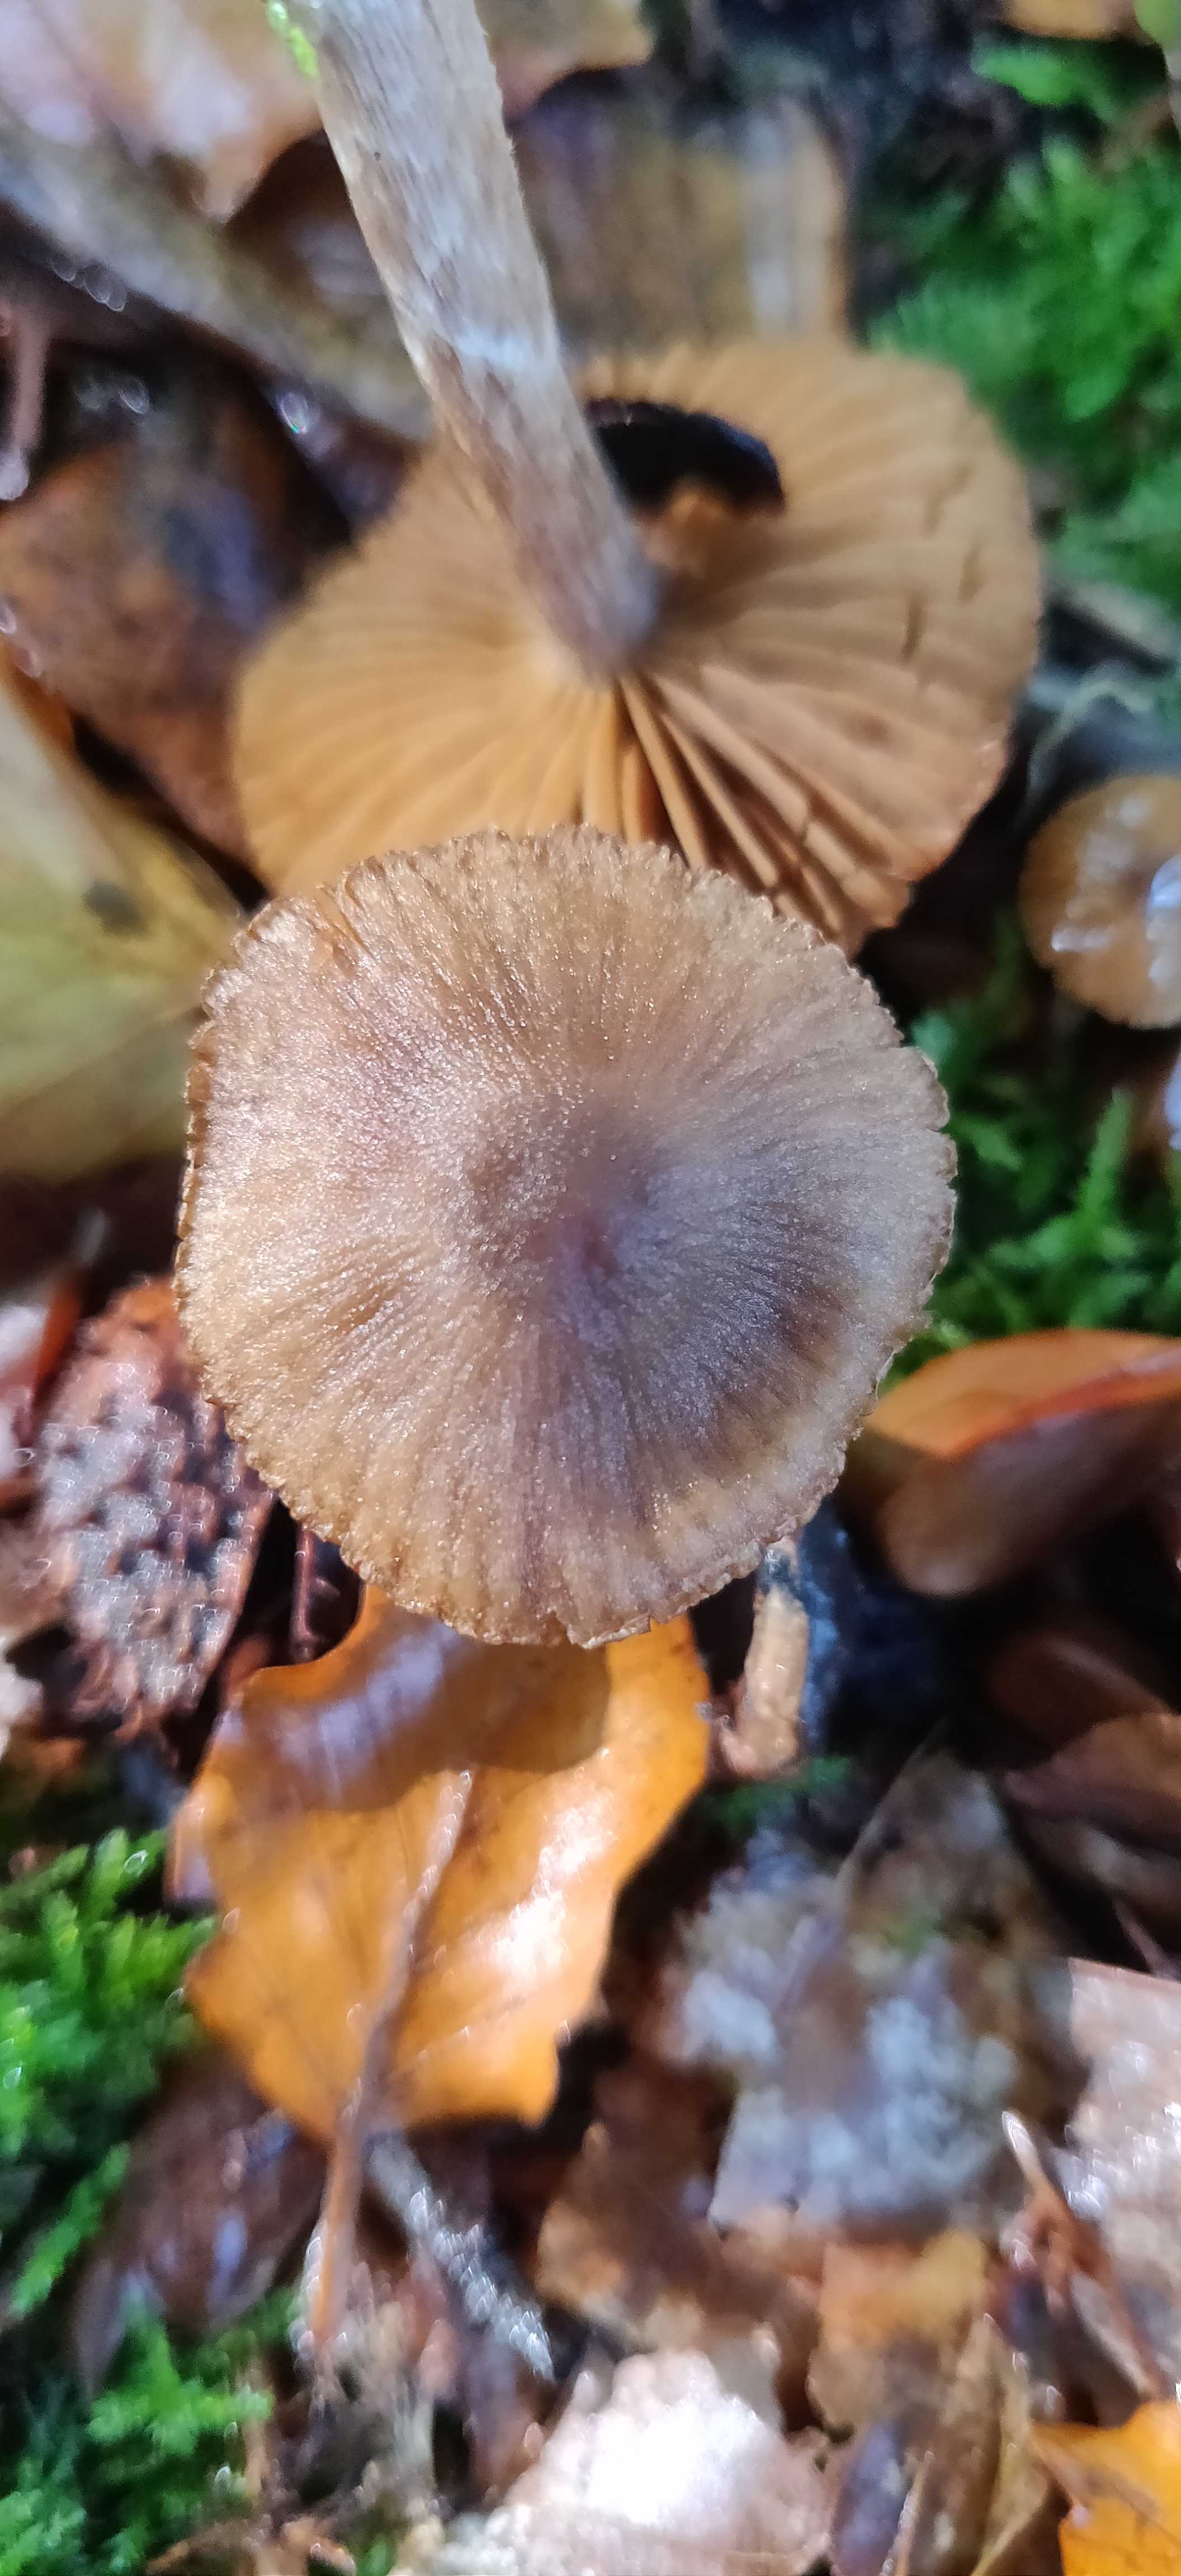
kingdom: Fungi
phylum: Basidiomycota
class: Agaricomycetes
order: Agaricales
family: Cortinariaceae
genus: Cortinarius
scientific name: Cortinarius
